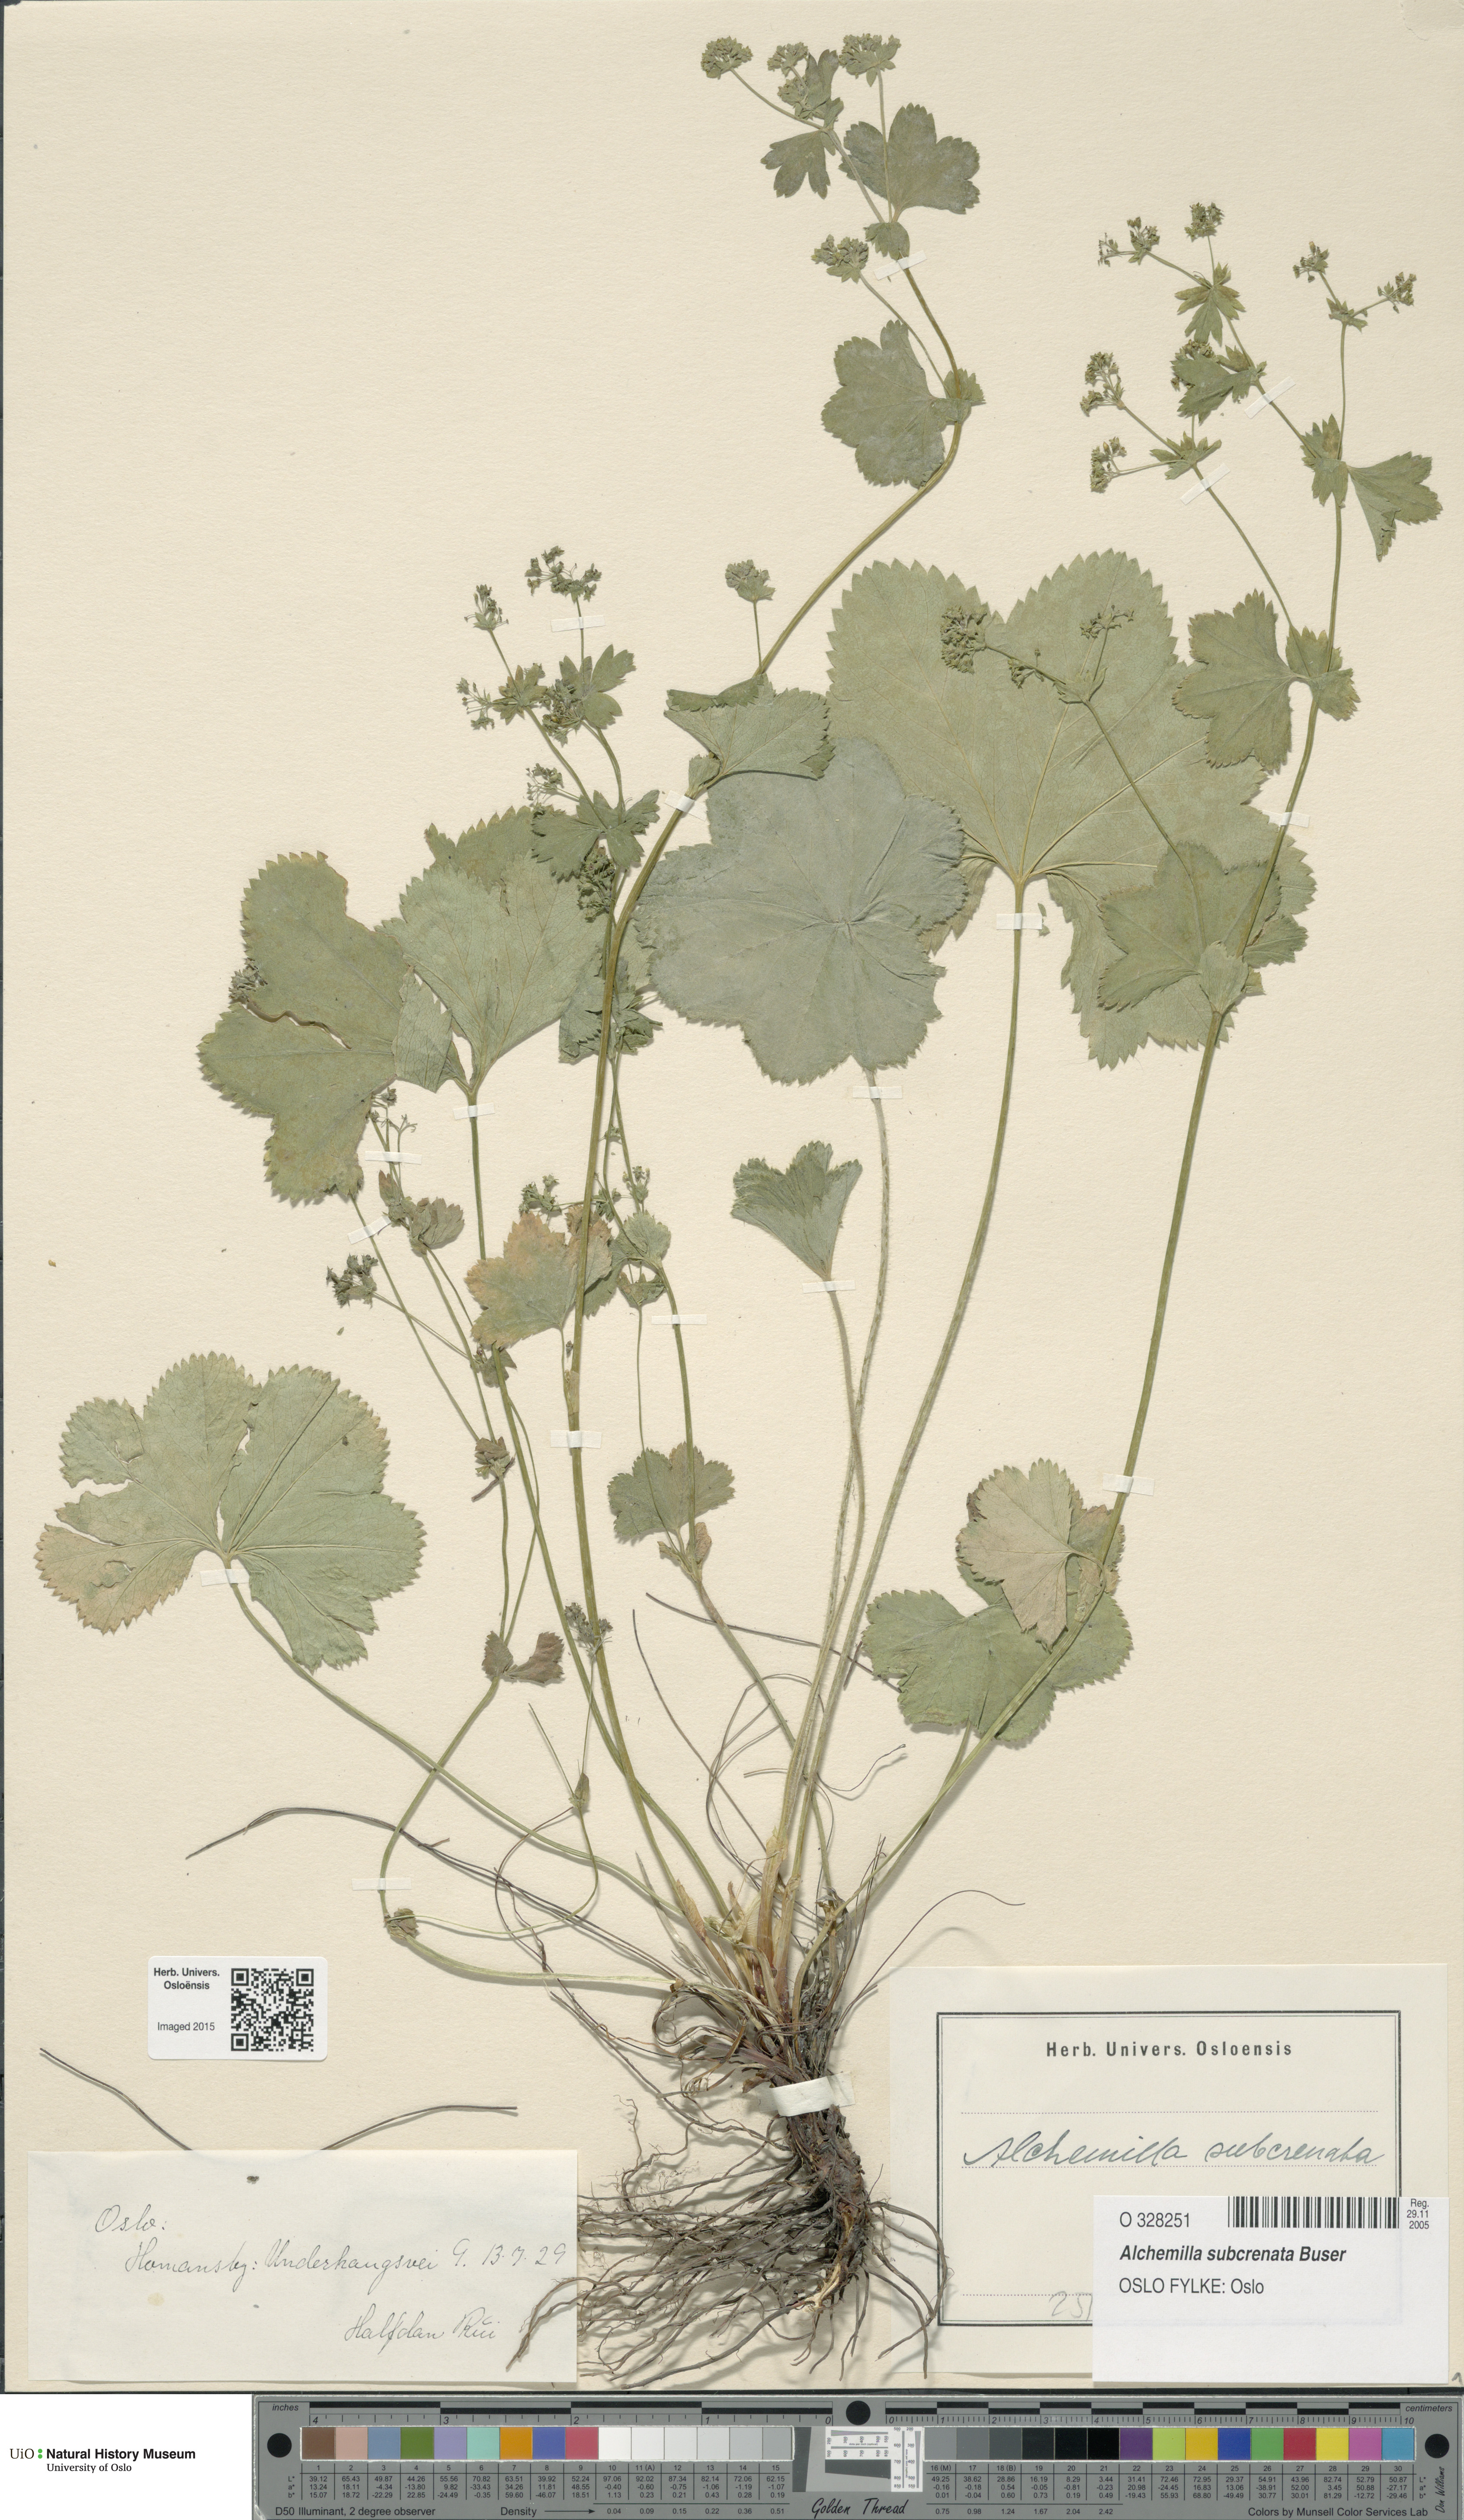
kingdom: Plantae
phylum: Tracheophyta
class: Magnoliopsida
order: Rosales
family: Rosaceae
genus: Alchemilla
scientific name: Alchemilla subcrenata
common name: Broadtooth lady's mantle
